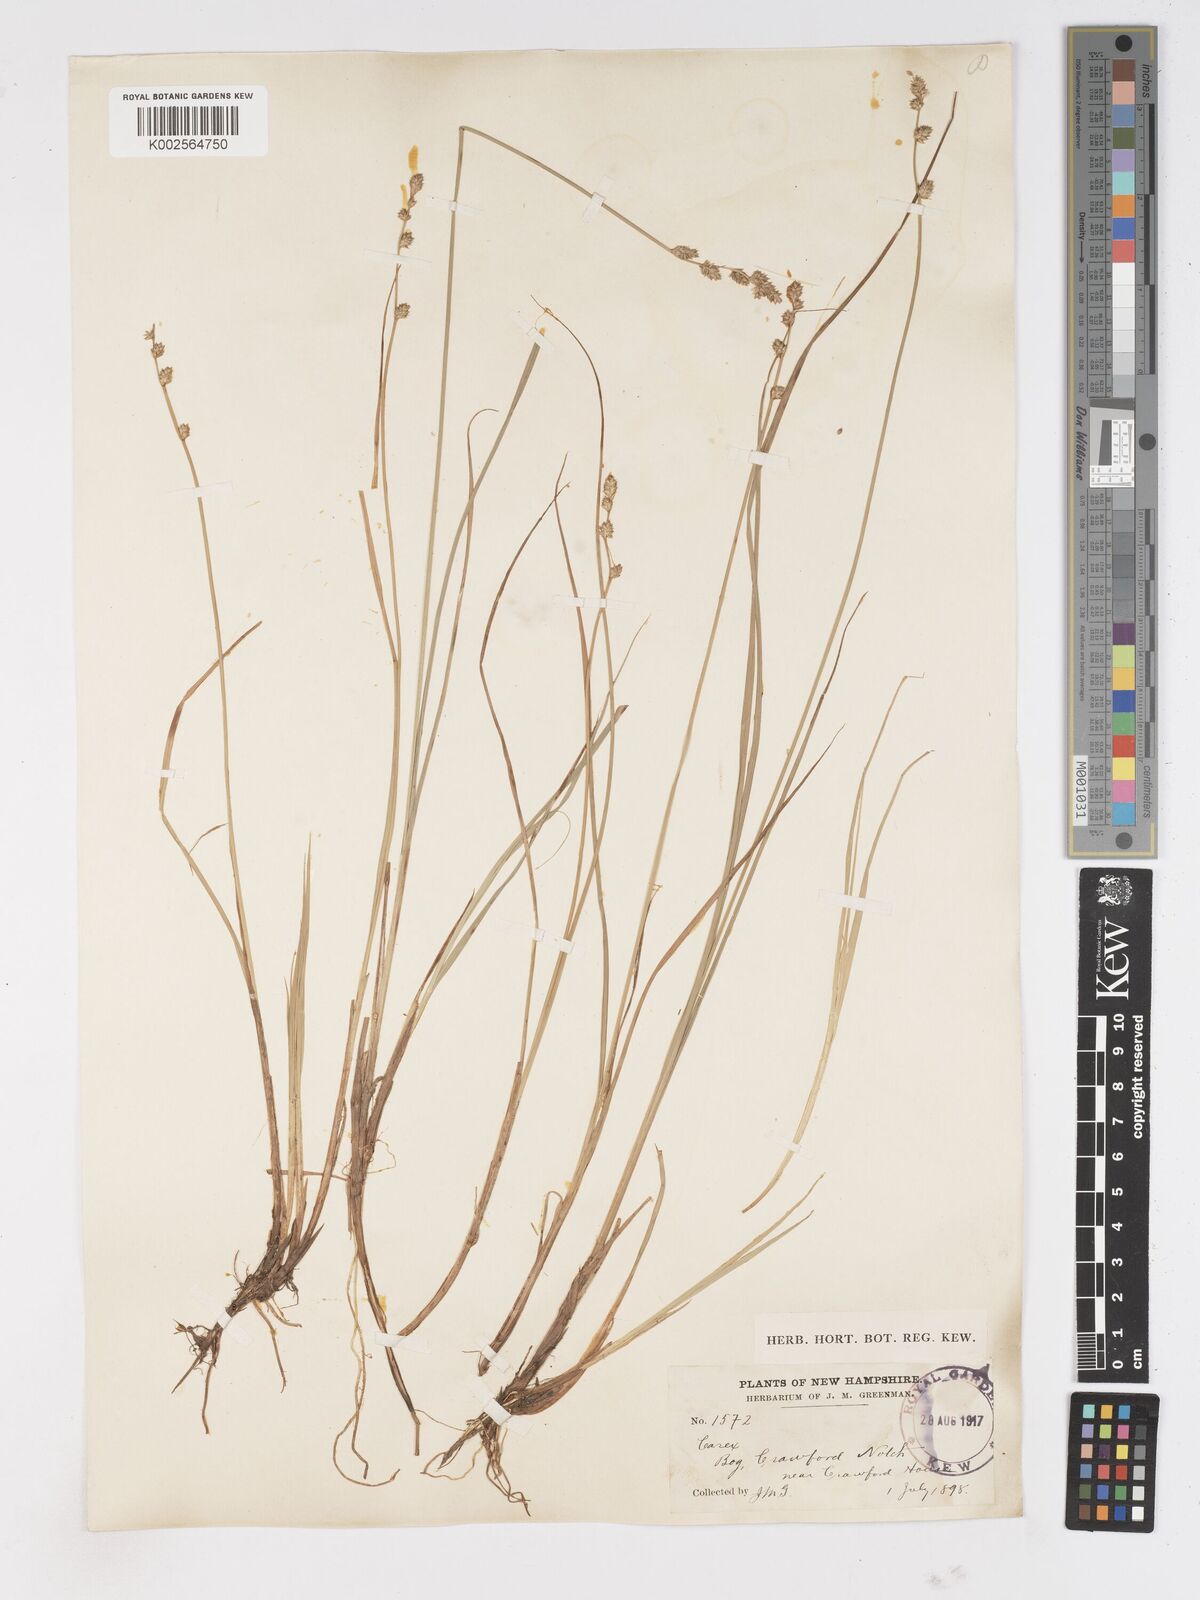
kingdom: Plantae
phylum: Tracheophyta
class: Liliopsida
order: Poales
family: Cyperaceae
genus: Carex
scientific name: Carex
